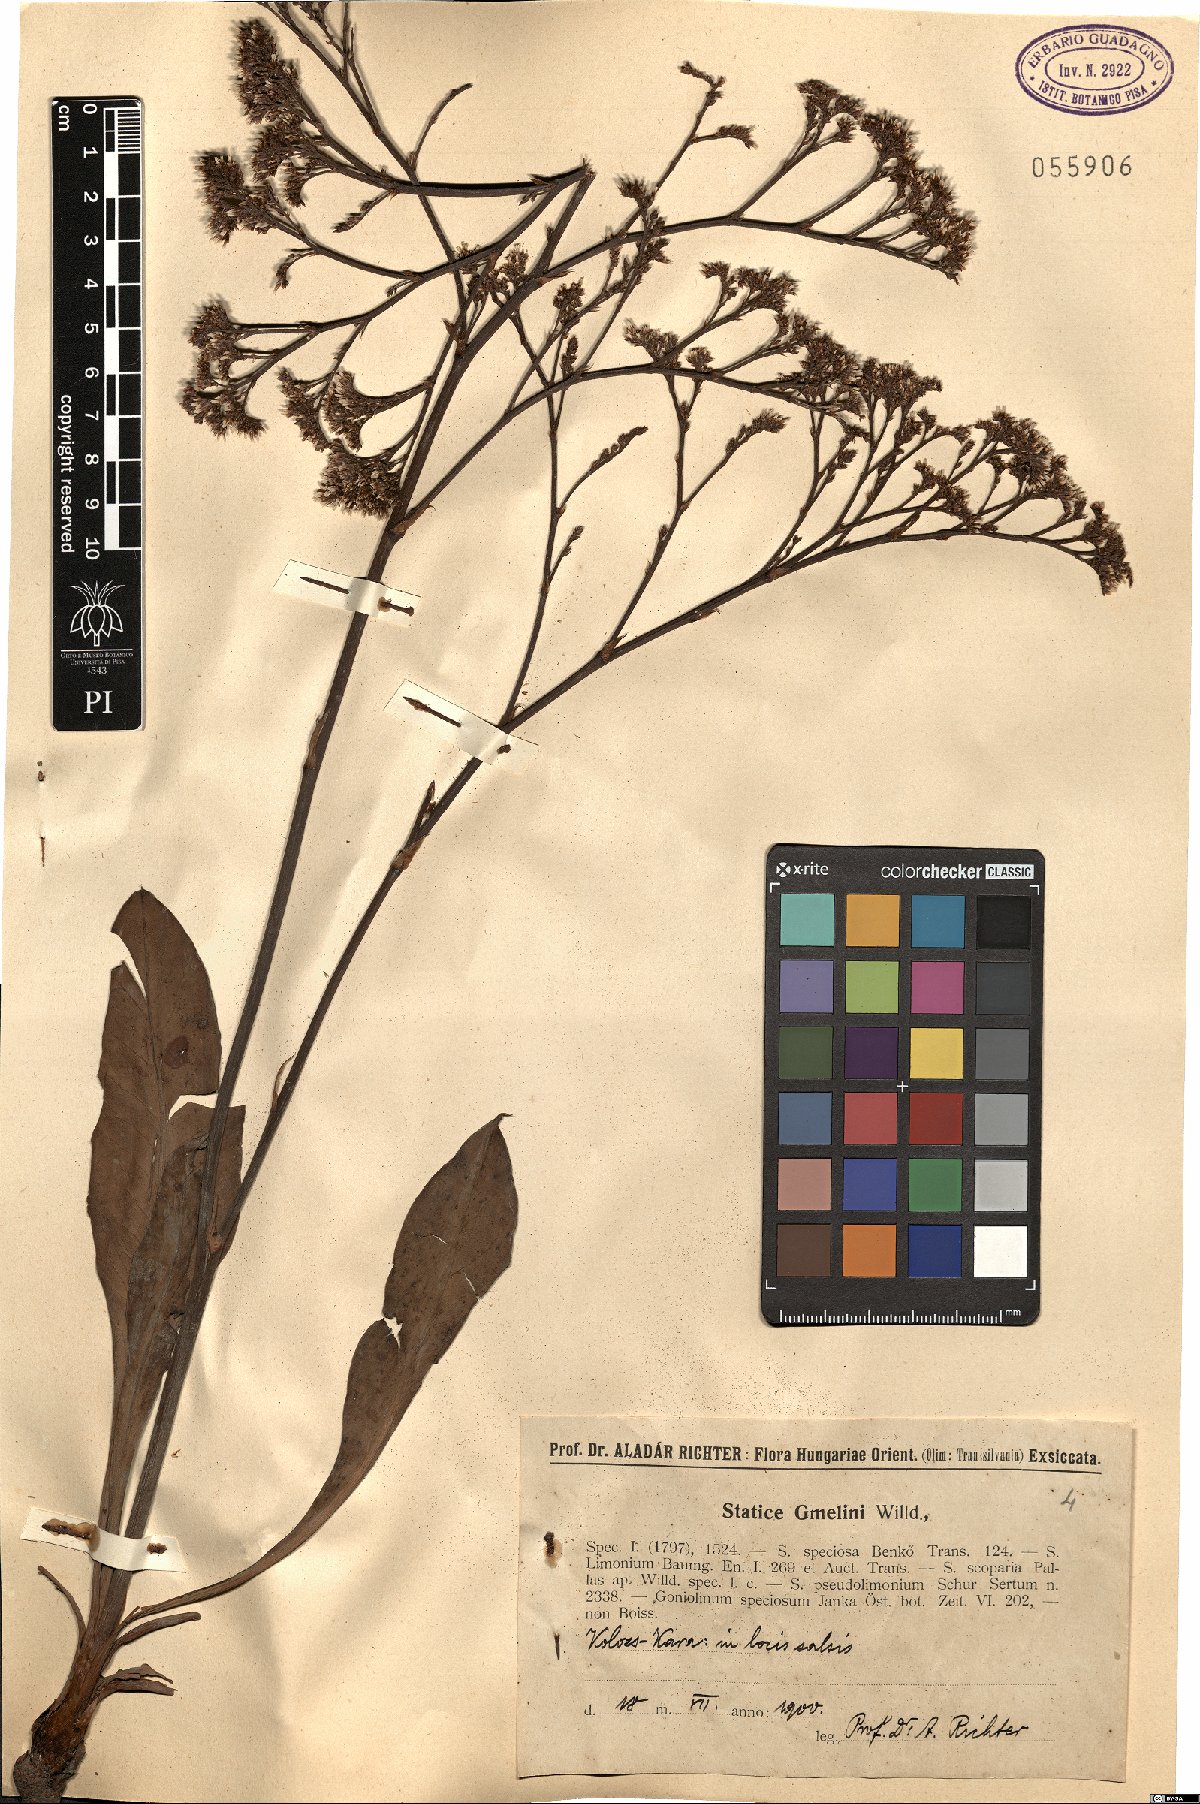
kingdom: Plantae
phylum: Tracheophyta
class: Magnoliopsida
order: Caryophyllales
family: Plumbaginaceae
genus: Limonium
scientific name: Limonium gmelini
